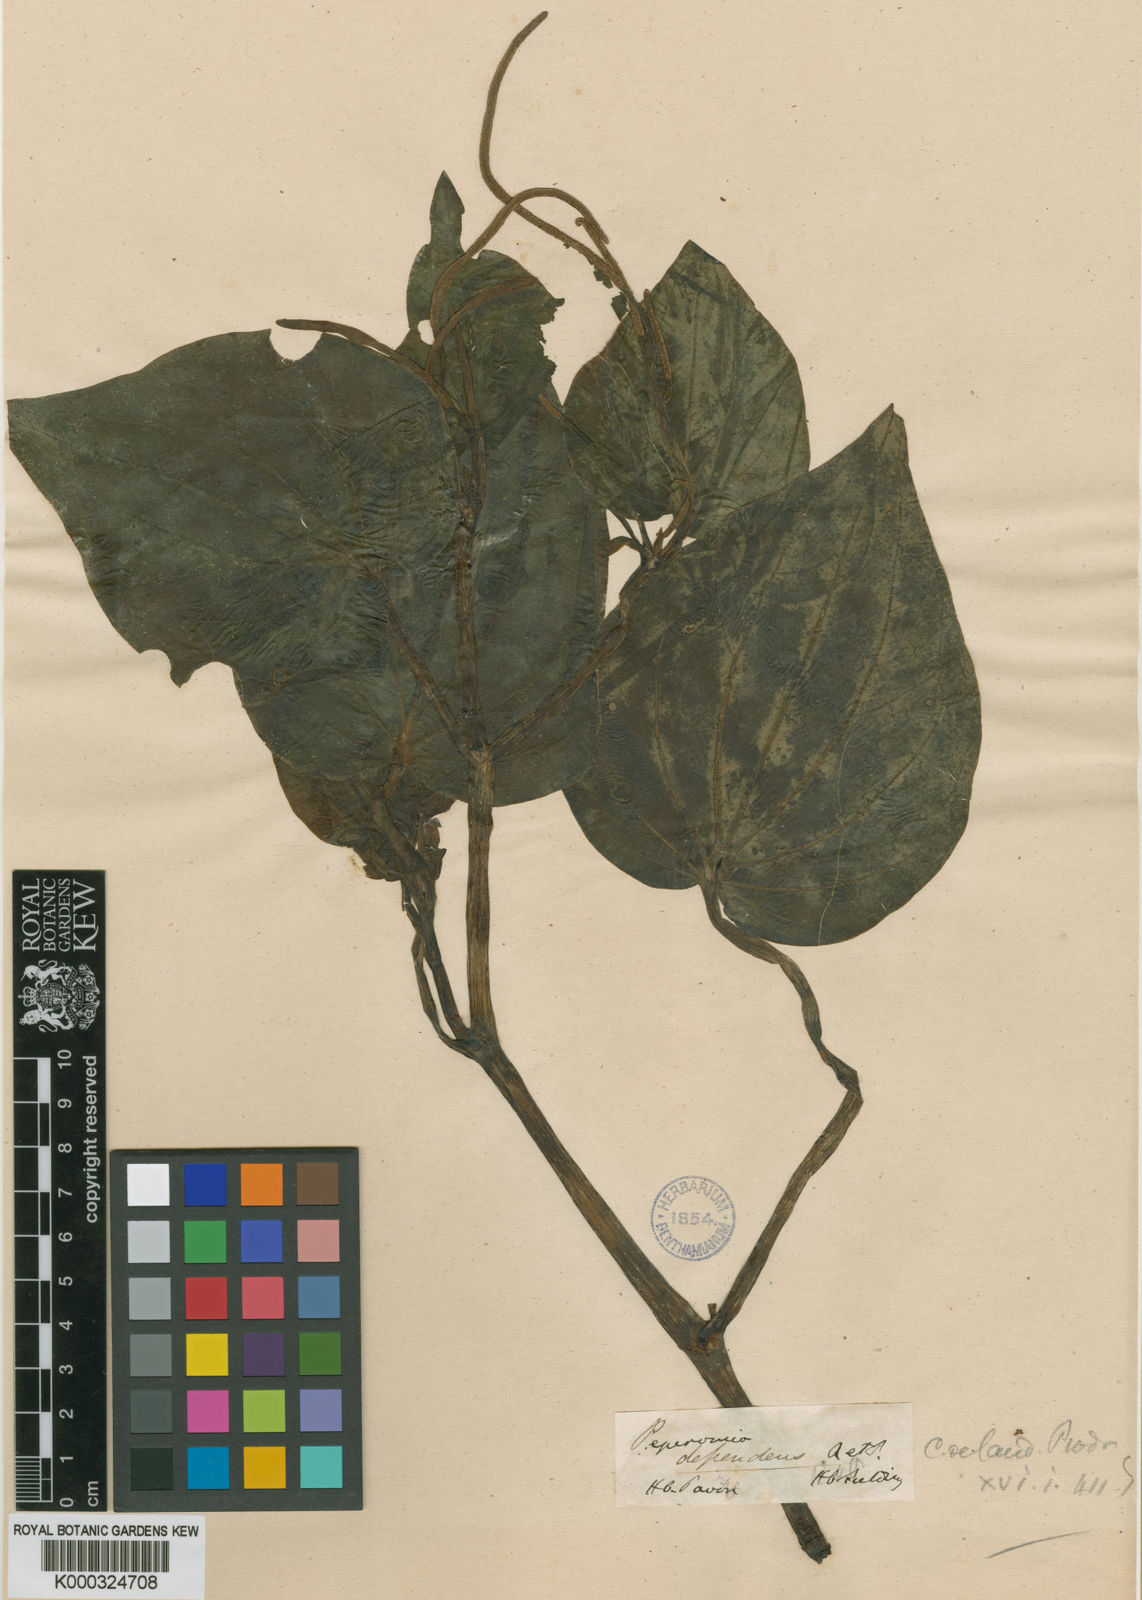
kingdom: Plantae
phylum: Tracheophyta
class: Magnoliopsida
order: Piperales
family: Piperaceae
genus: Peperomia
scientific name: Peperomia dependens
